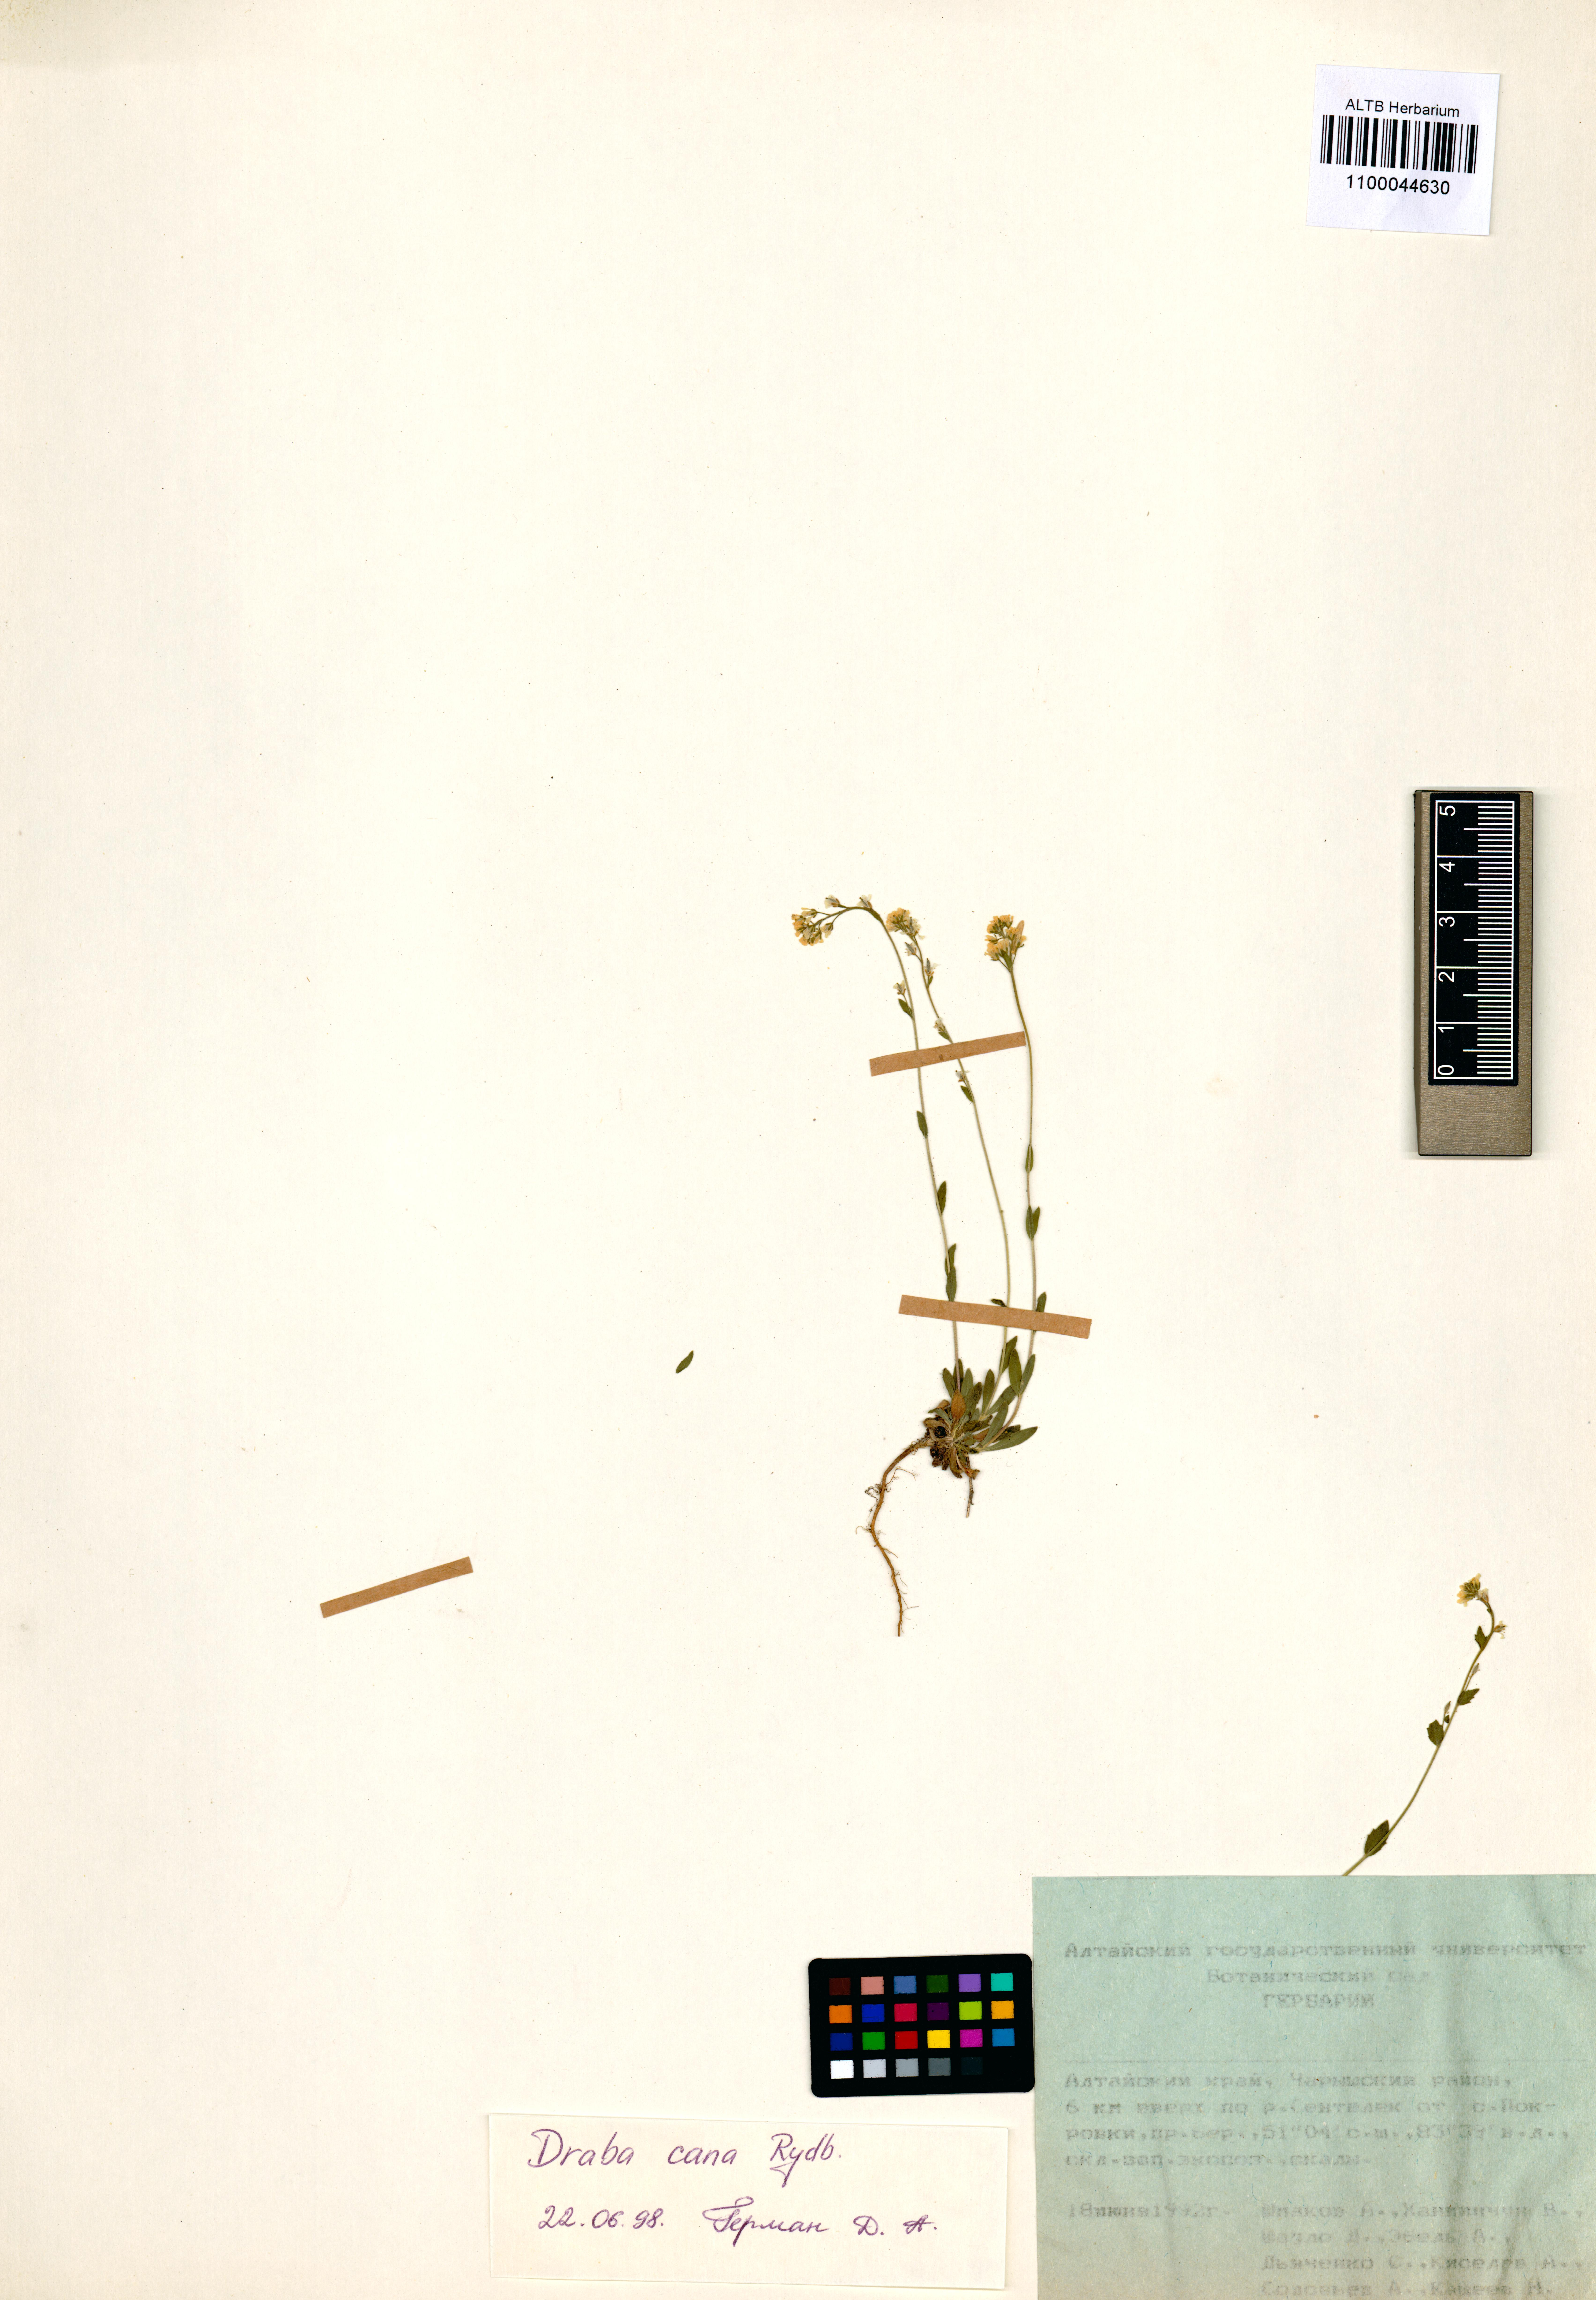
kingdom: Plantae
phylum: Tracheophyta
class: Magnoliopsida
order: Brassicales
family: Brassicaceae
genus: Draba
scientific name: Draba cana
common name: Hoary draba
